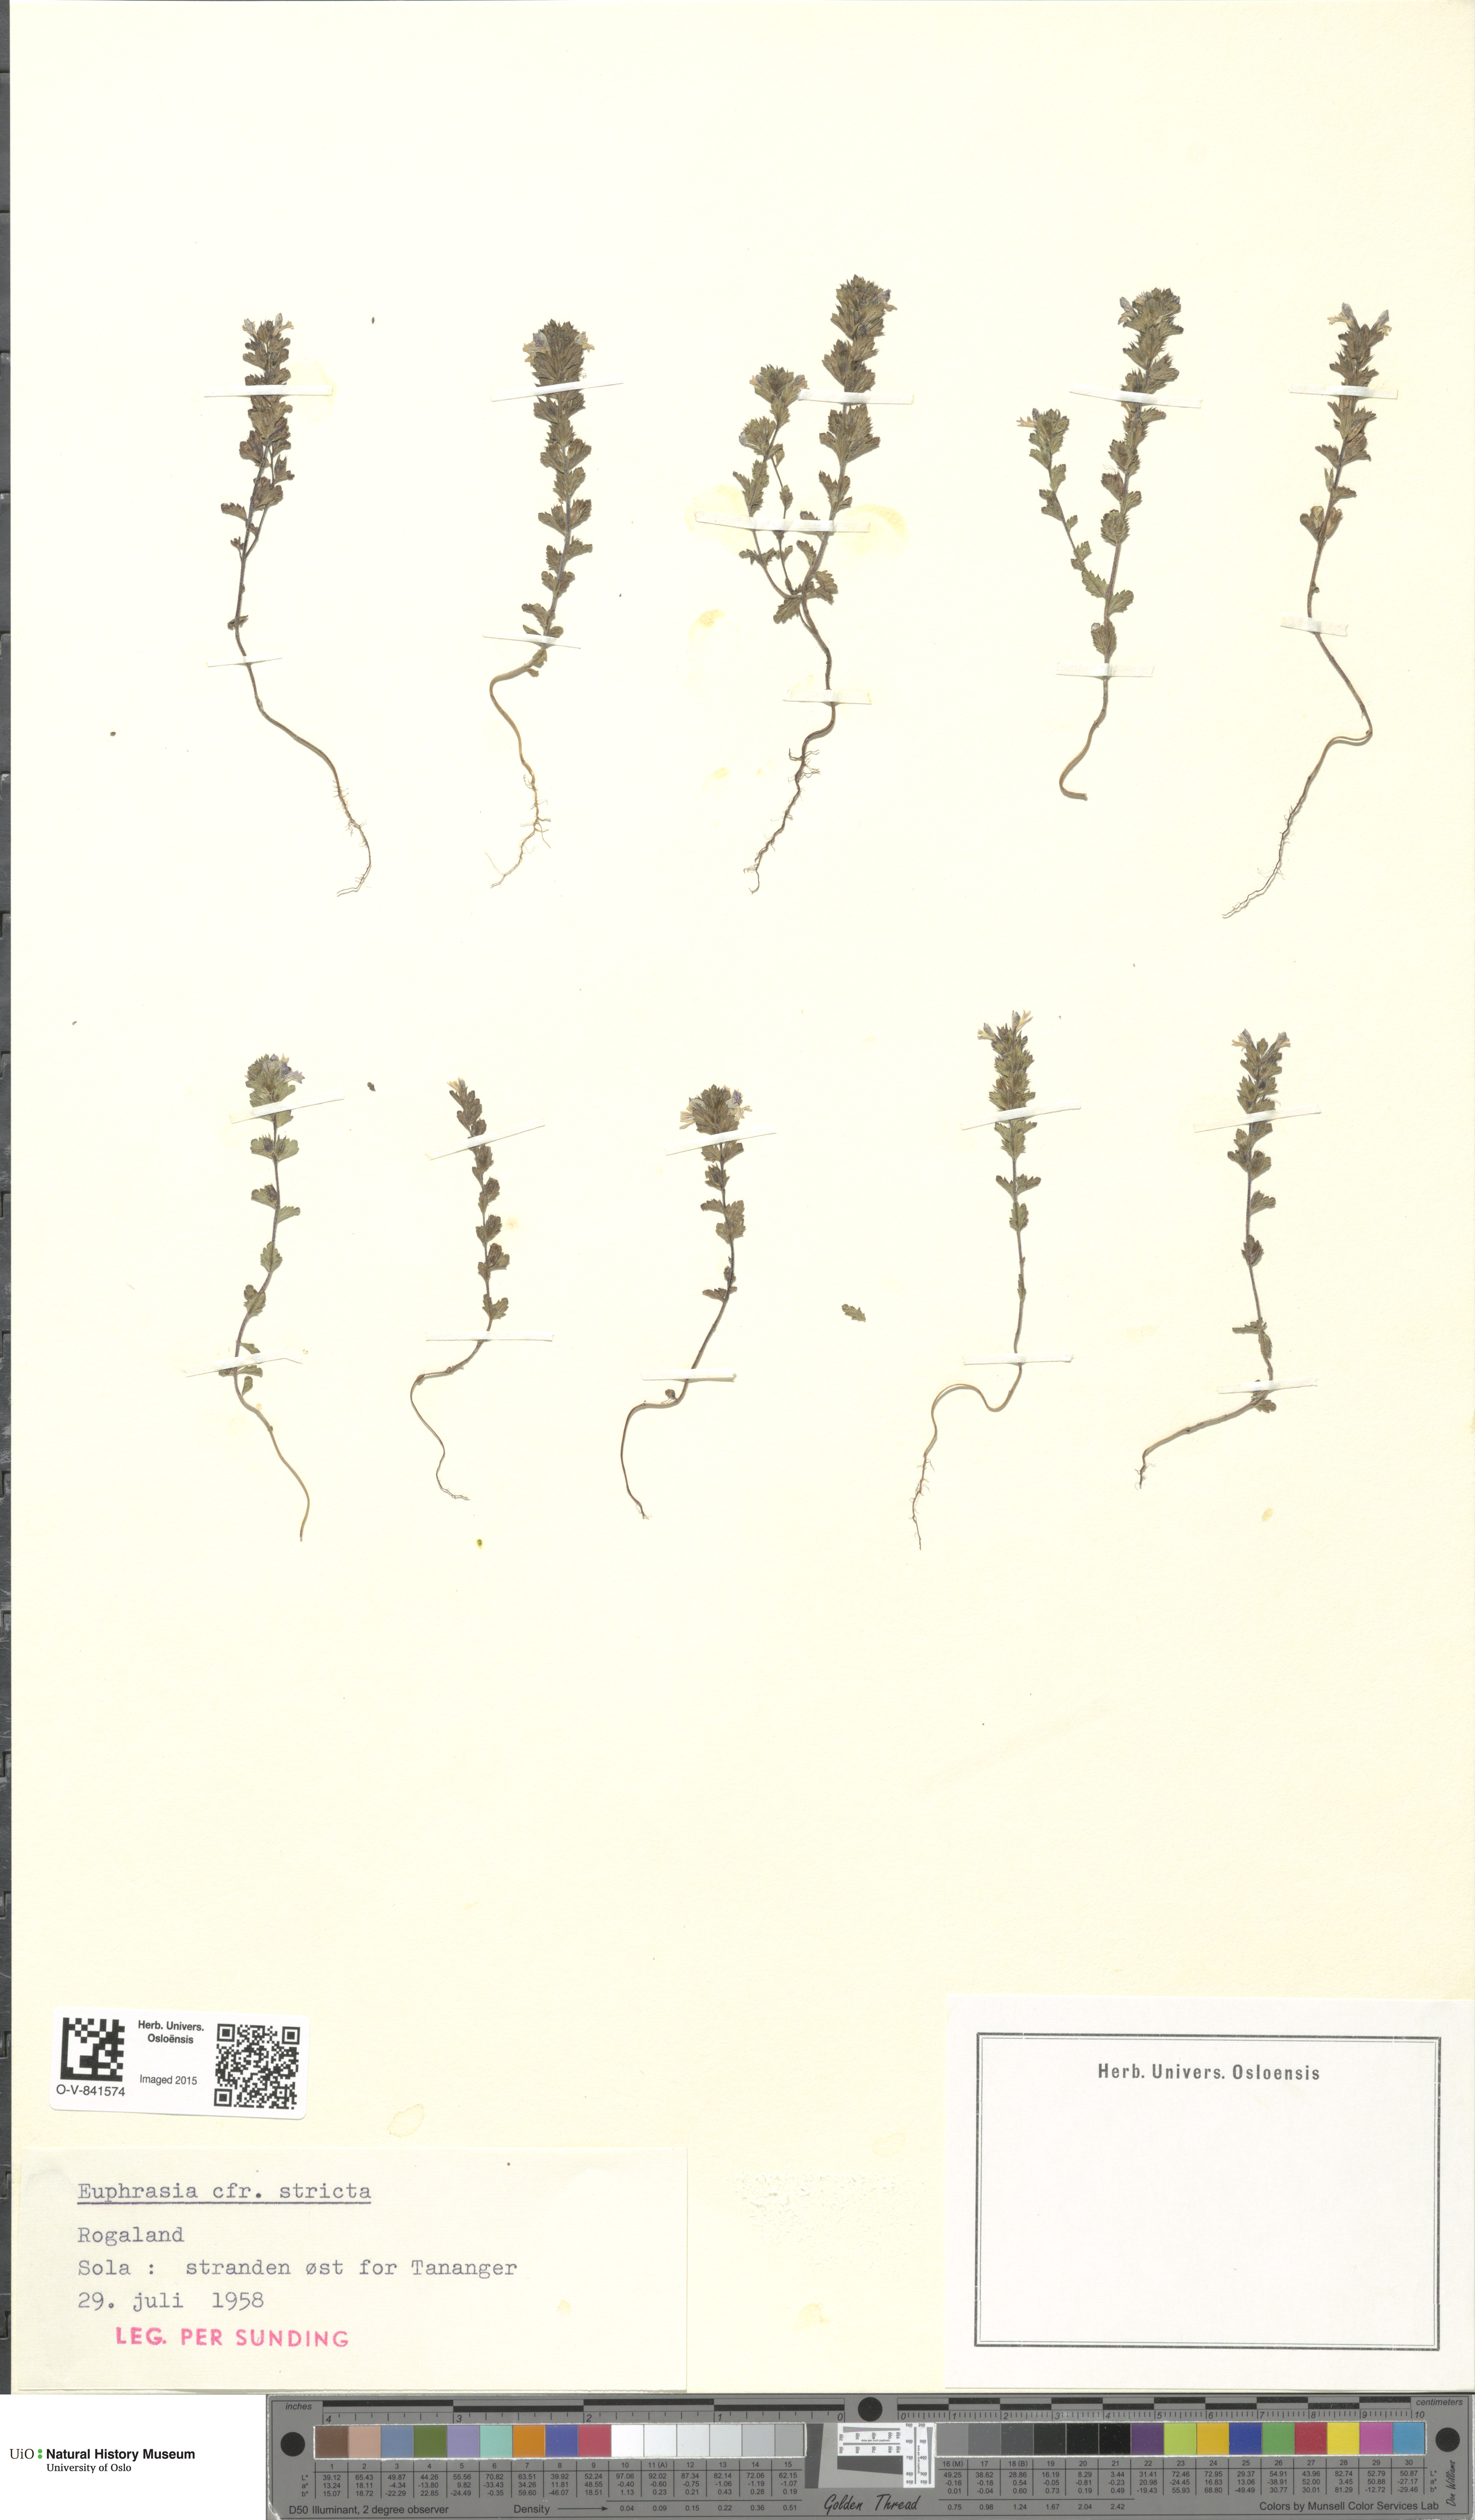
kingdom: Plantae
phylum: Tracheophyta
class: Magnoliopsida
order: Lamiales
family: Orobanchaceae
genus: Euphrasia
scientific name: Euphrasia stricta
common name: Drug eyebright
